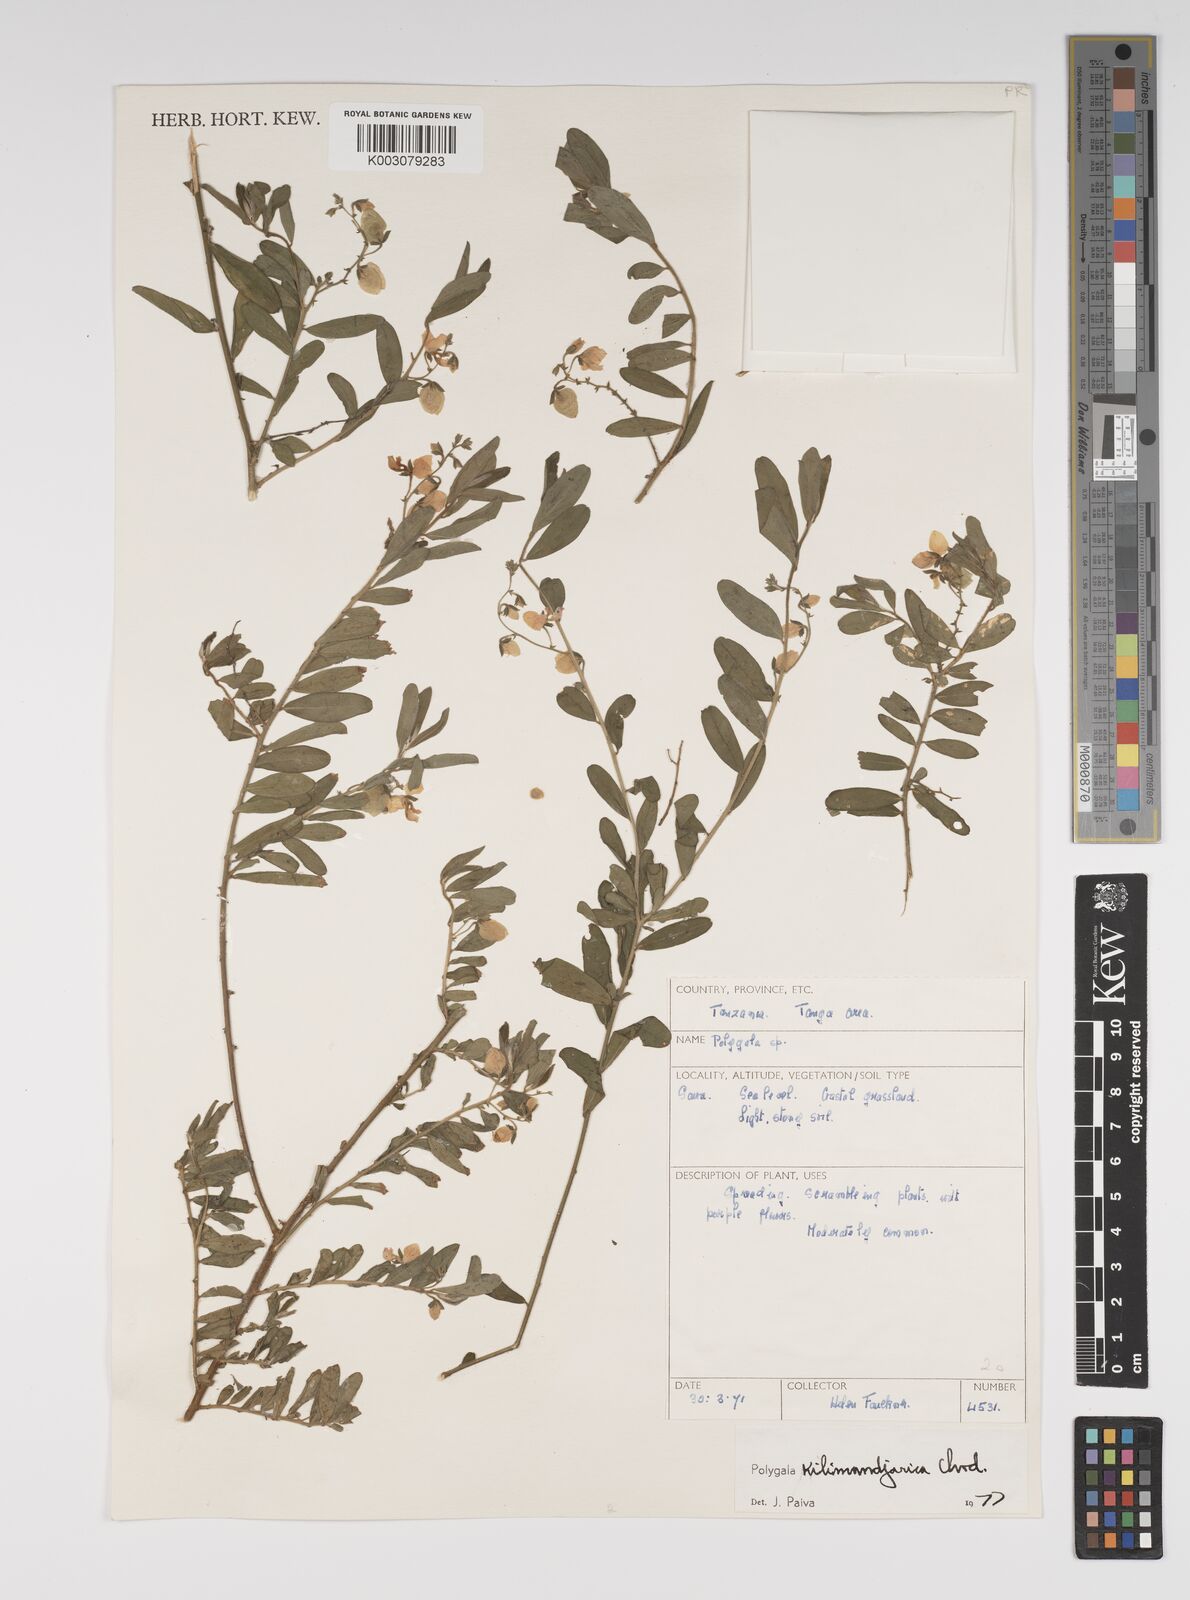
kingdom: Plantae
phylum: Tracheophyta
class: Magnoliopsida
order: Fabales
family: Polygalaceae
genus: Polygala
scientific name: Polygala kilimandjarica
